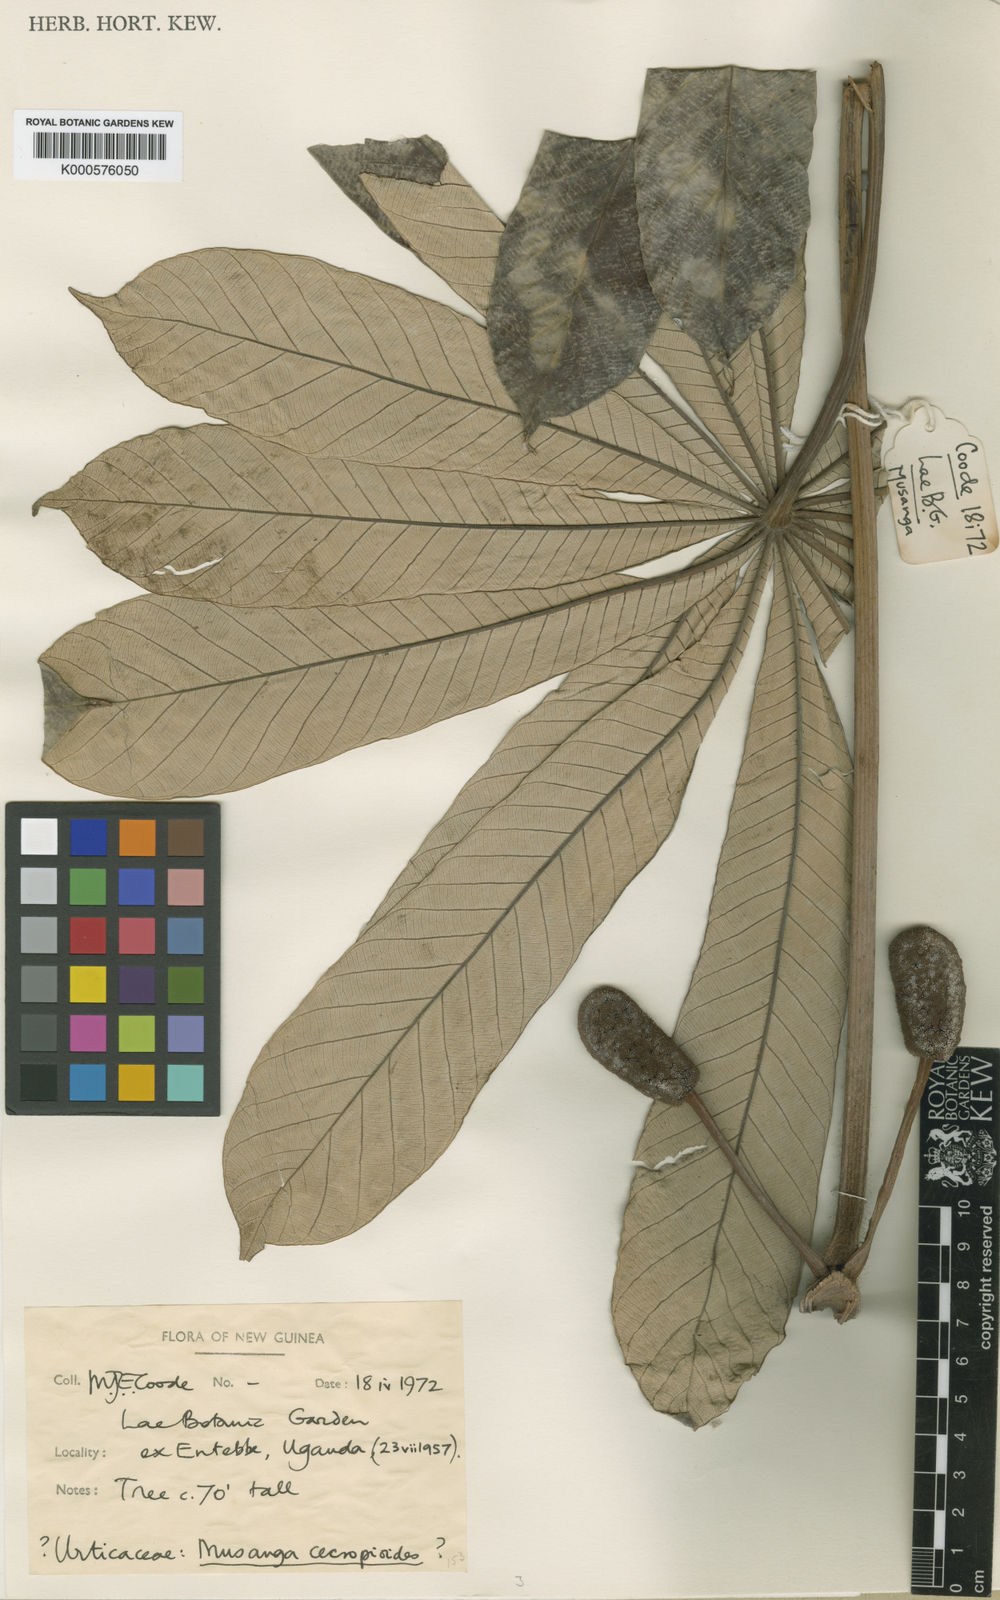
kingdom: Plantae
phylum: Tracheophyta
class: Magnoliopsida
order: Rosales
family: Urticaceae
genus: Musanga
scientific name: Musanga cecropioides
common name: African corkwood
